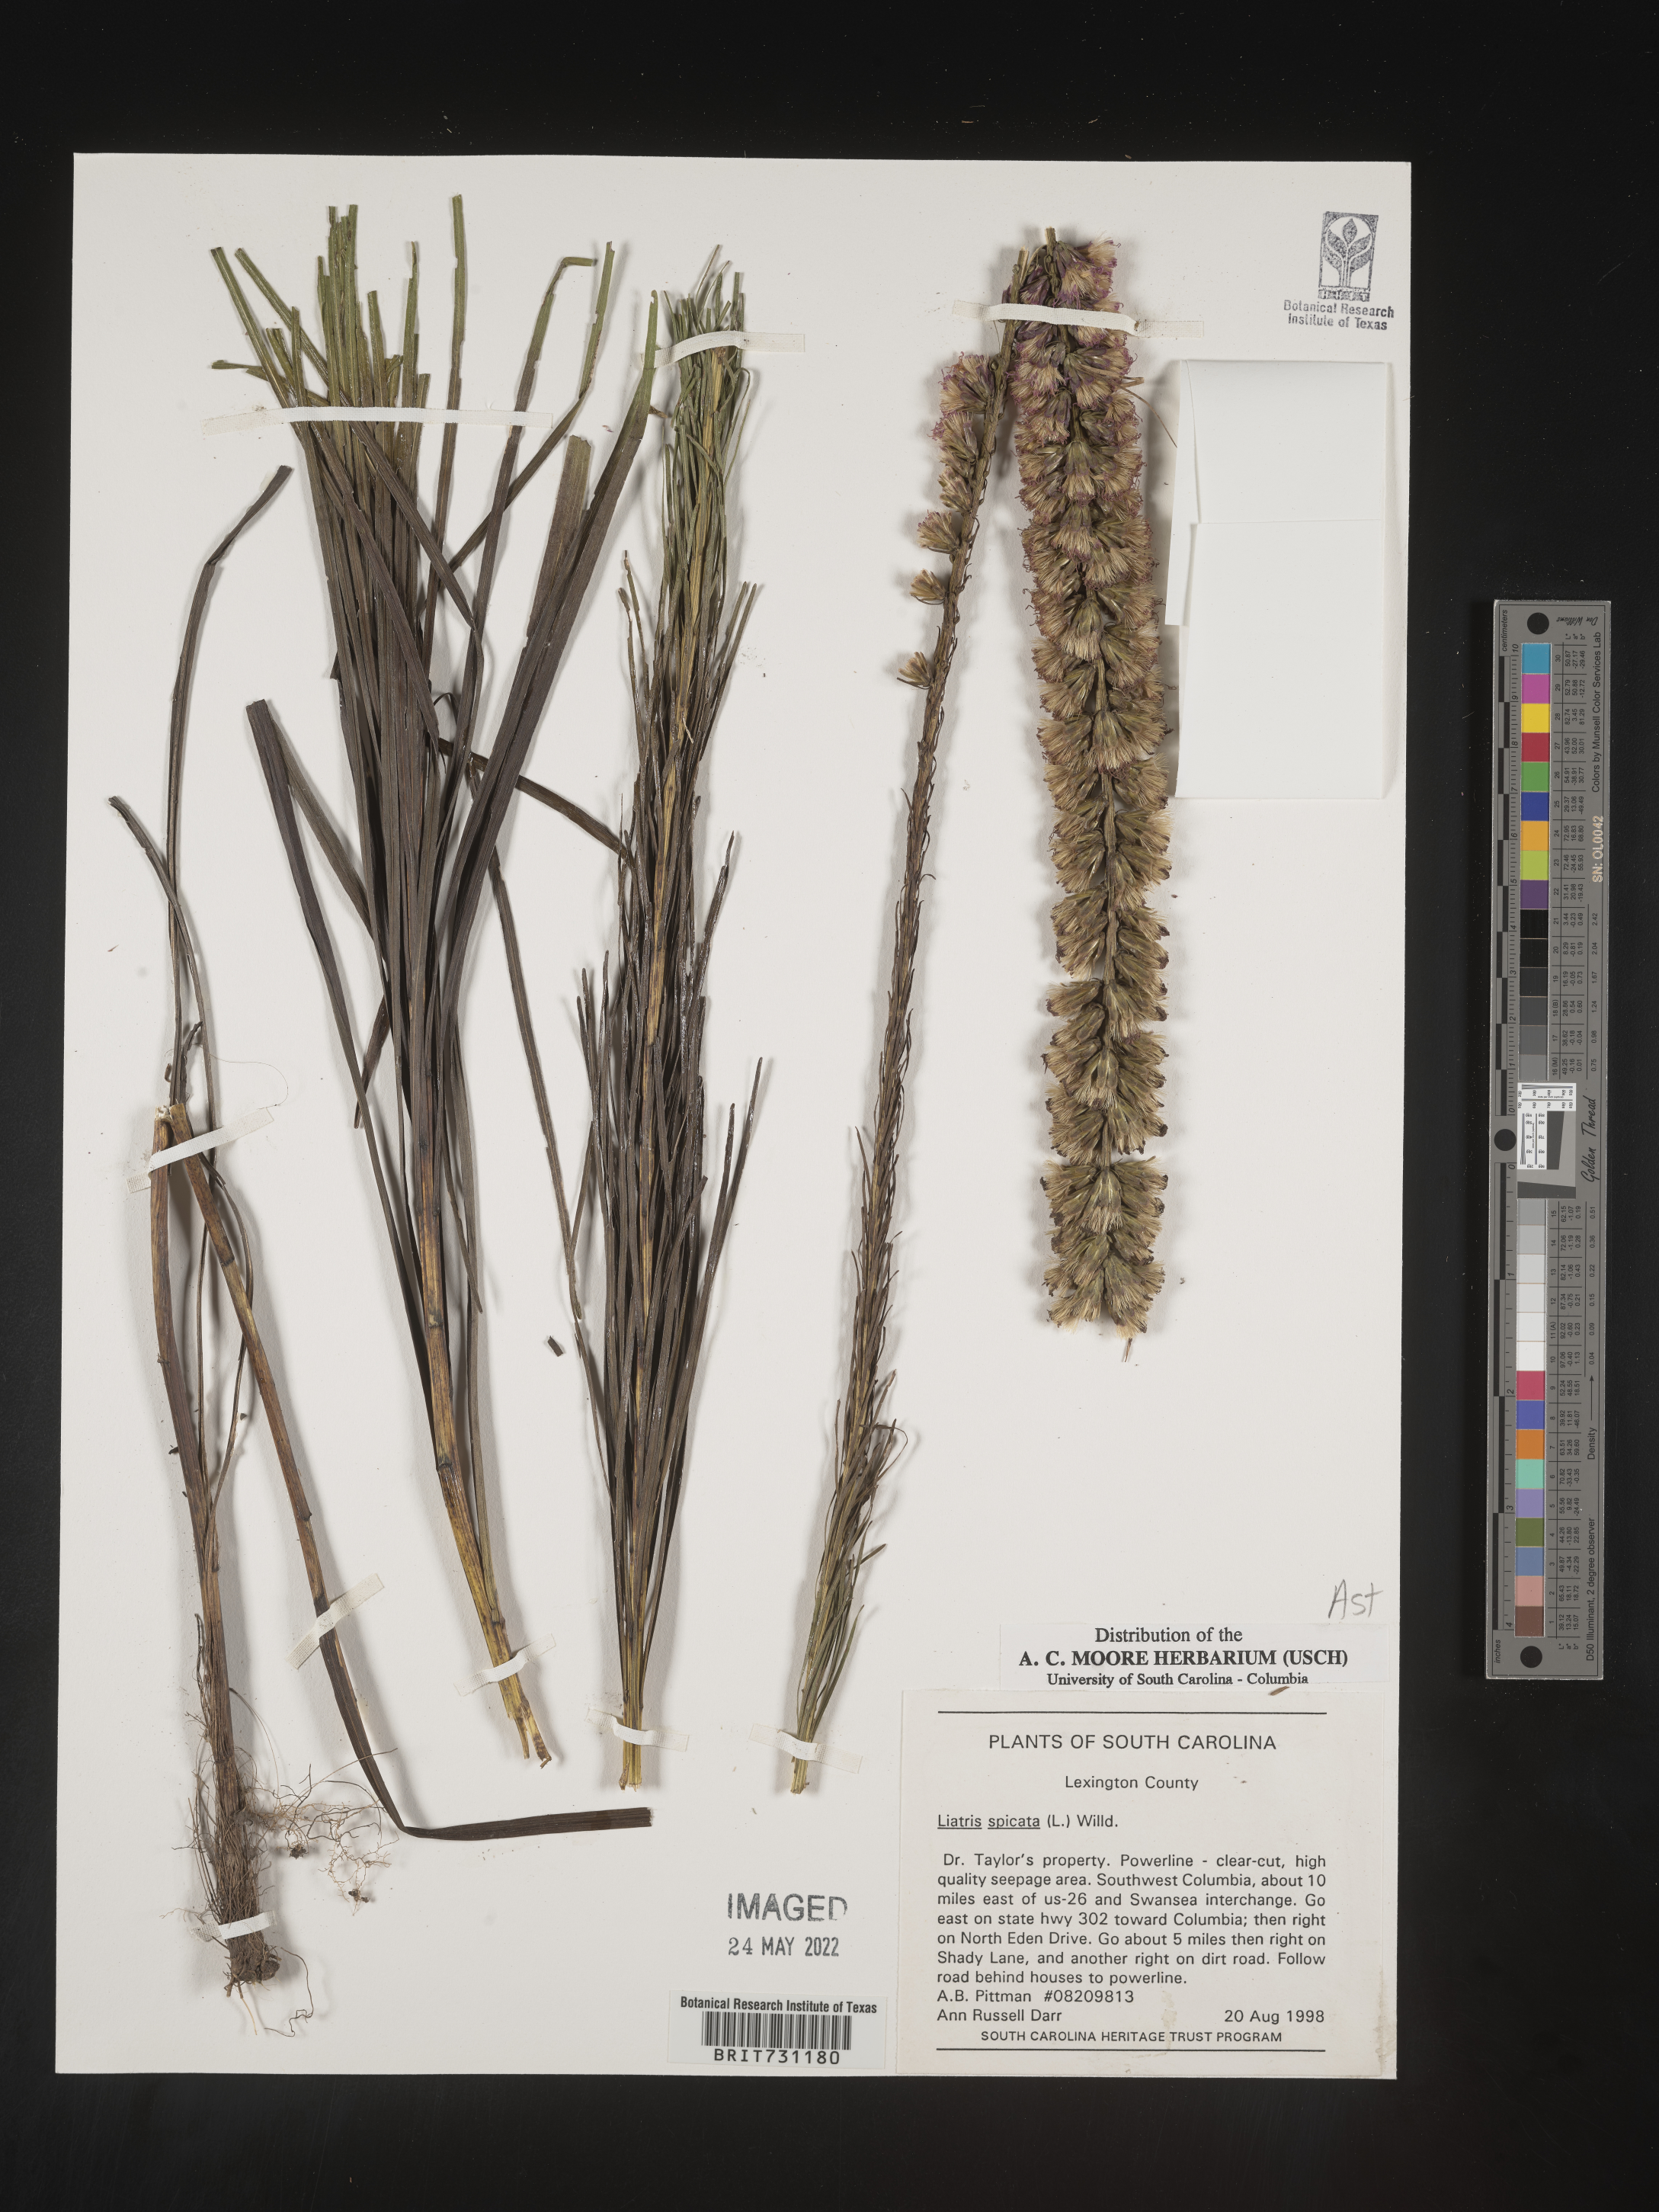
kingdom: Plantae
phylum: Tracheophyta
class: Magnoliopsida
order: Asterales
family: Asteraceae
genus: Liatris
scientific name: Liatris spicata
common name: Florist gayfeather
